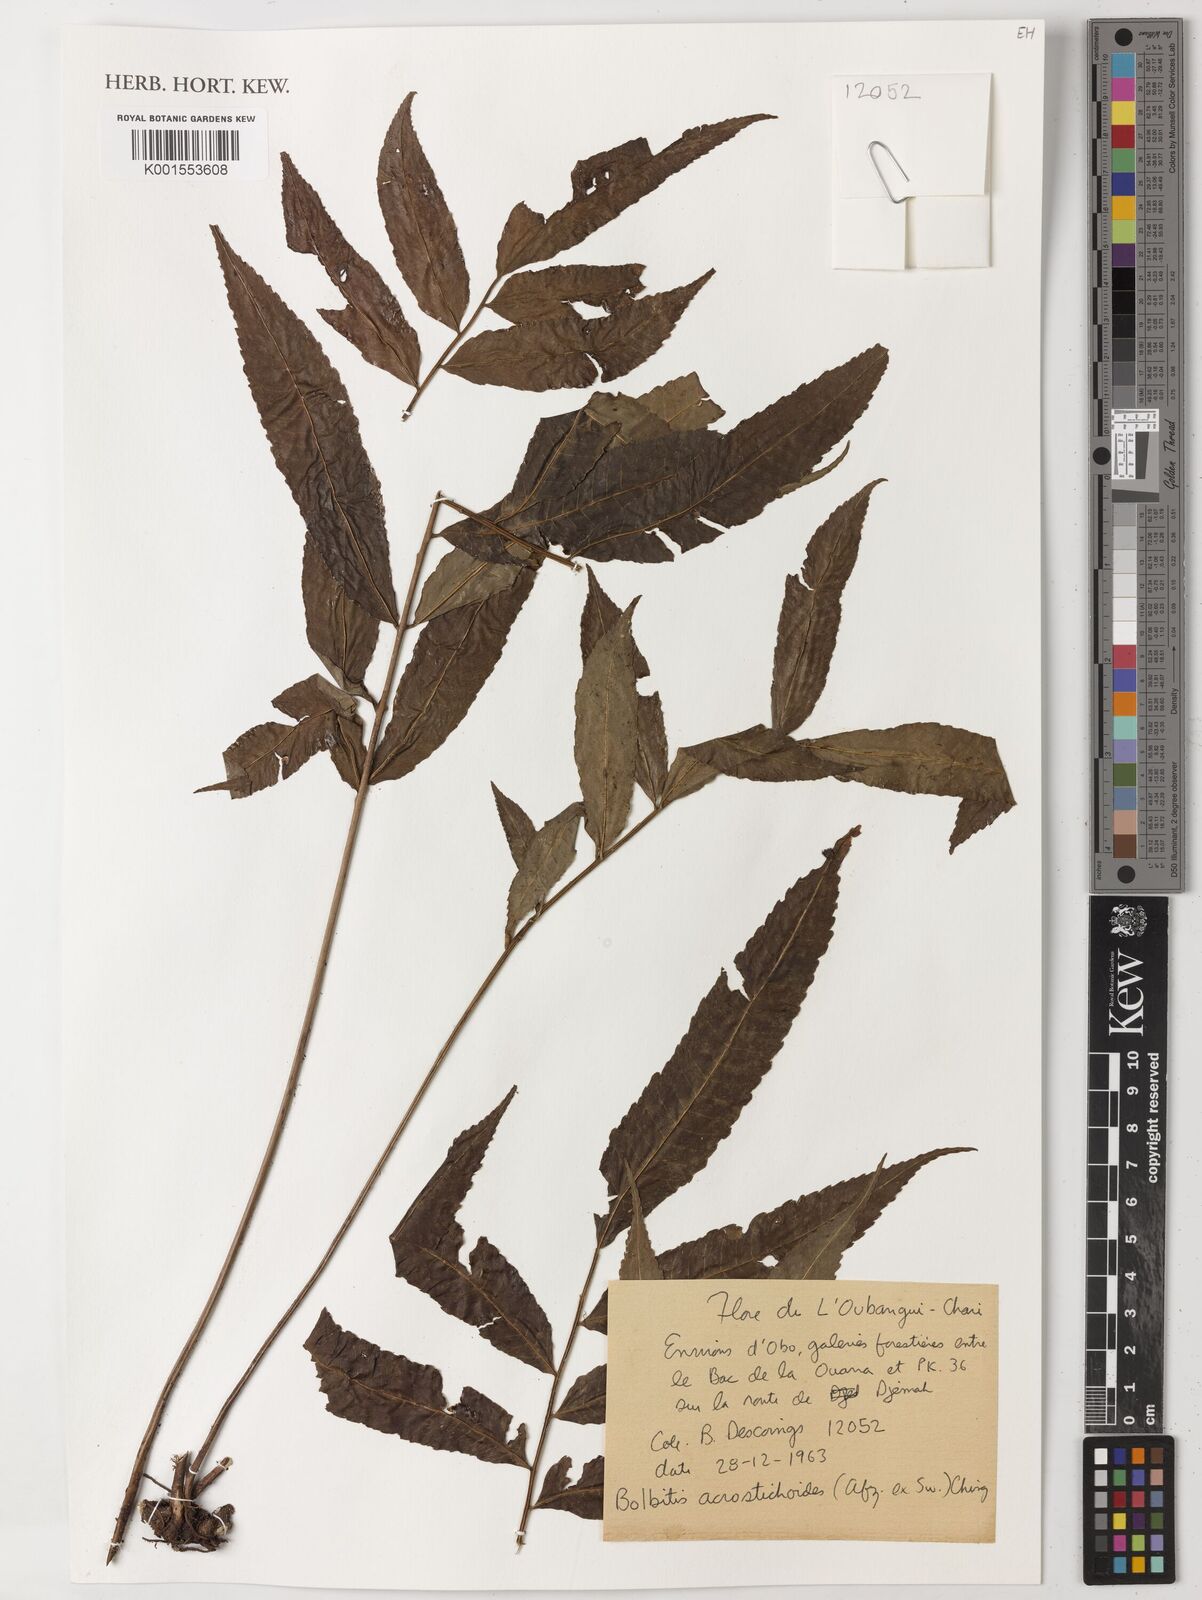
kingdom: Plantae
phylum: Tracheophyta
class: Polypodiopsida
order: Polypodiales
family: Dryopteridaceae
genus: Bolbitis
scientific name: Bolbitis acrostichoides
